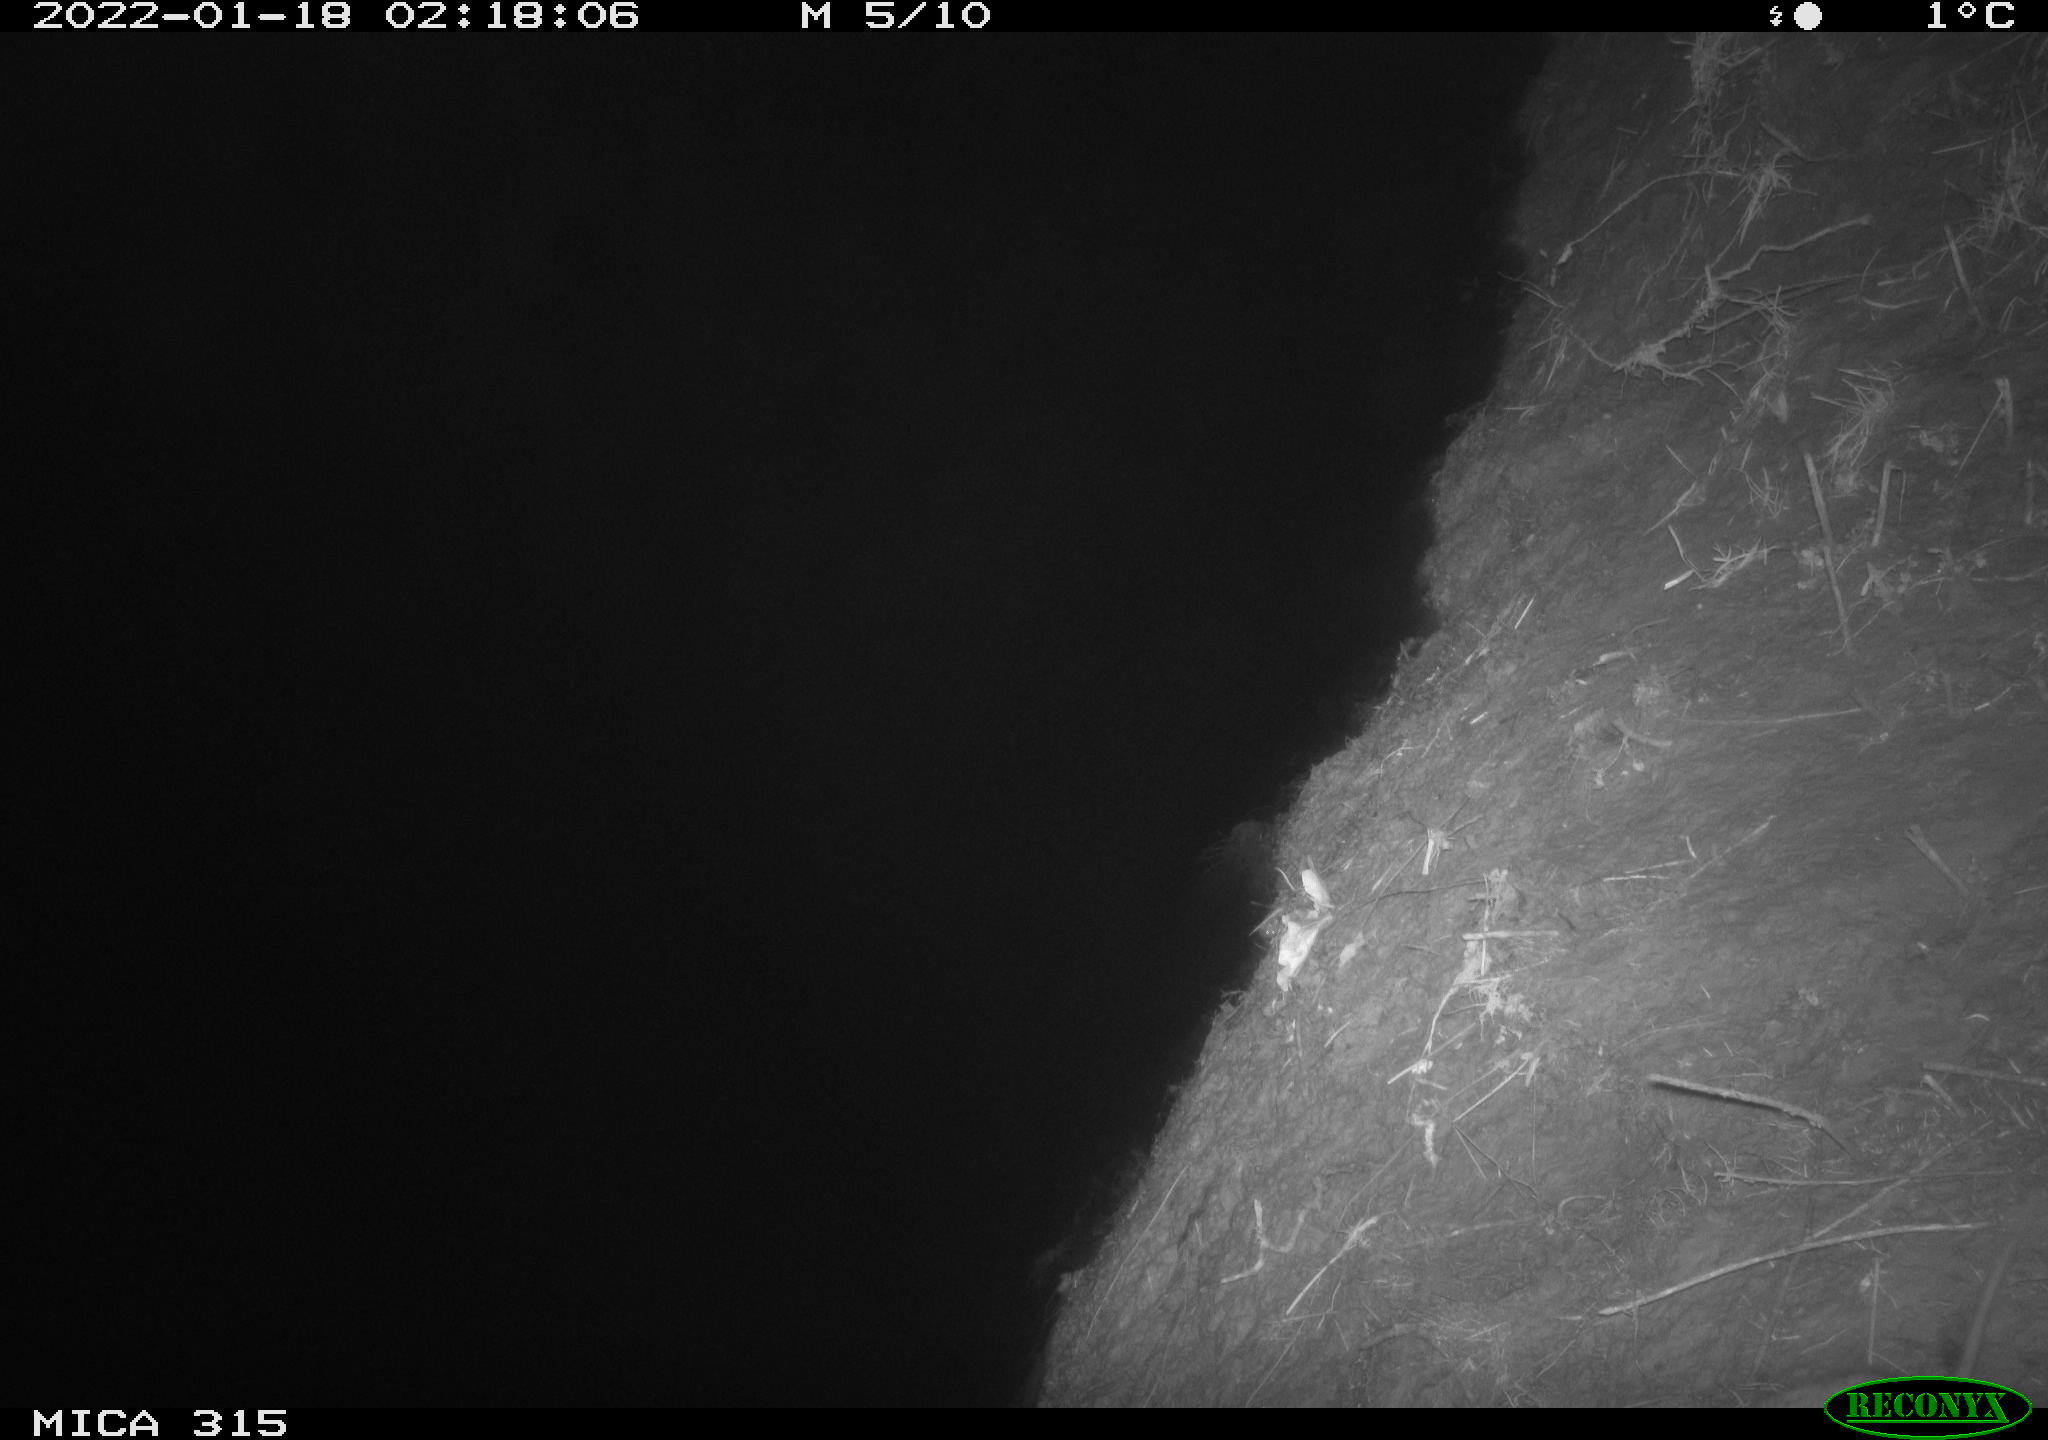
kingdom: Animalia
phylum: Chordata
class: Mammalia
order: Rodentia
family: Muridae
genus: Rattus
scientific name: Rattus norvegicus
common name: Brown rat
